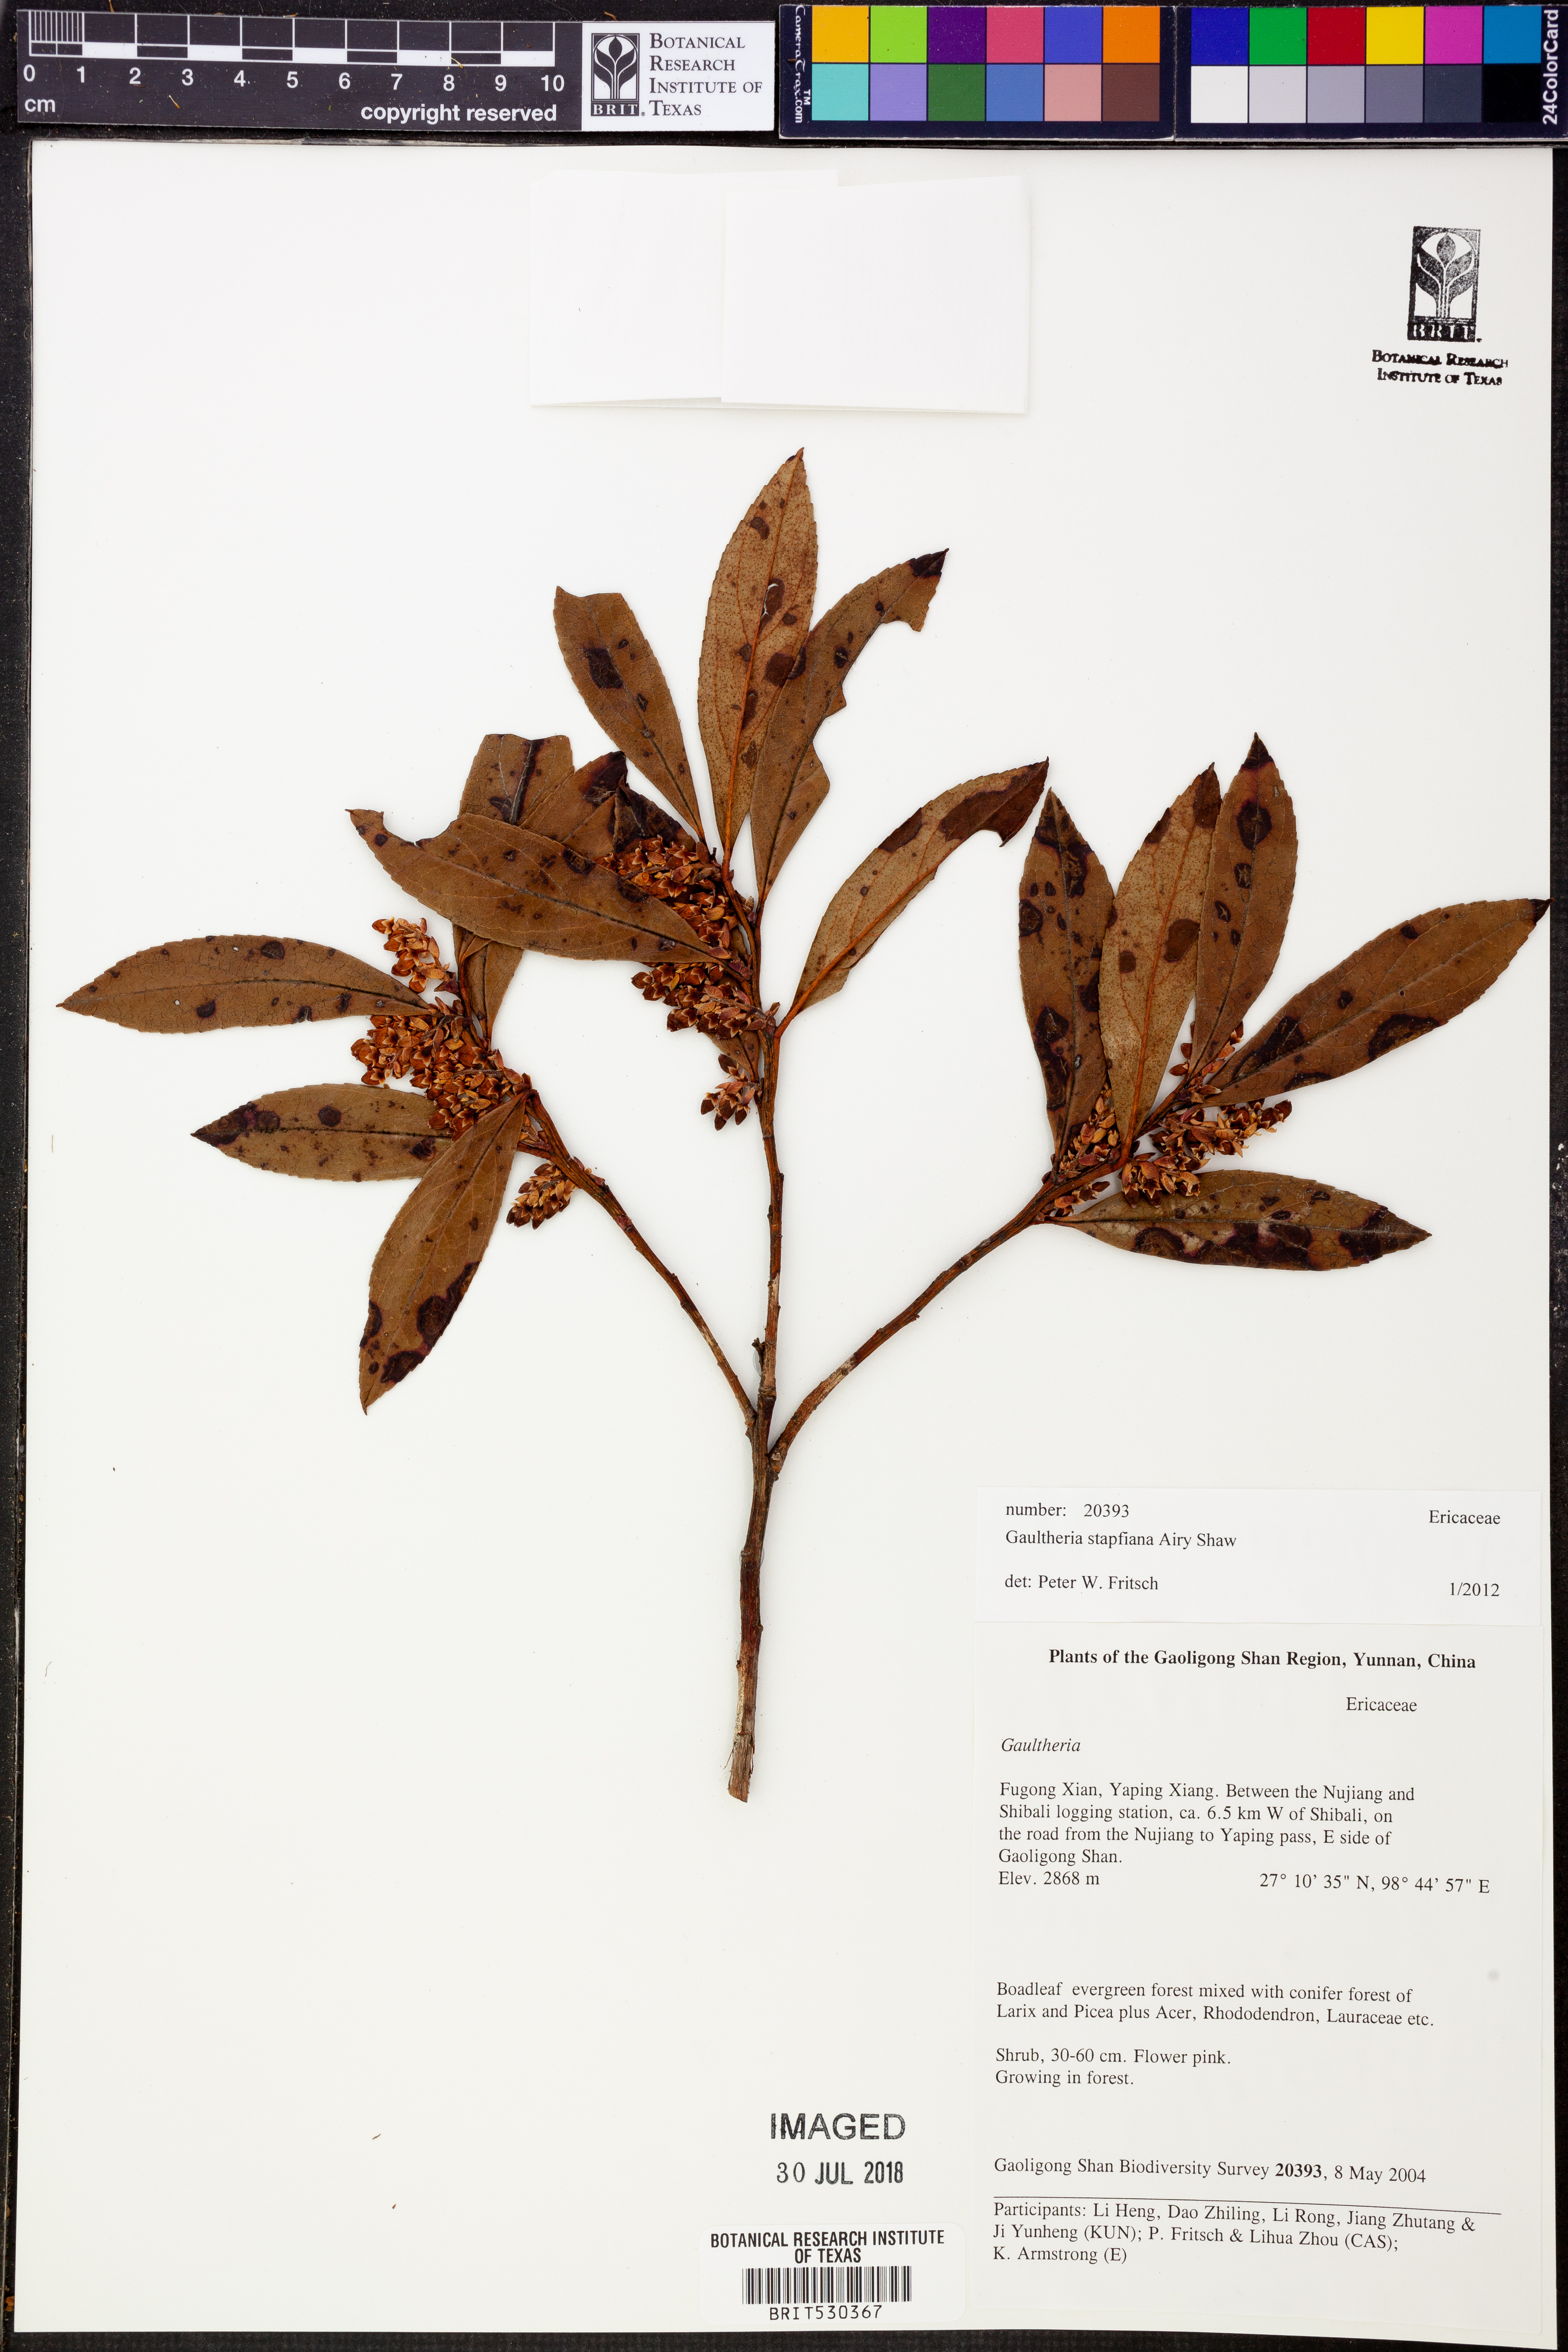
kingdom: Plantae
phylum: Tracheophyta
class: Magnoliopsida
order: Ericales
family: Ericaceae
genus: Gaultheria
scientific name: Gaultheria stapfiana
